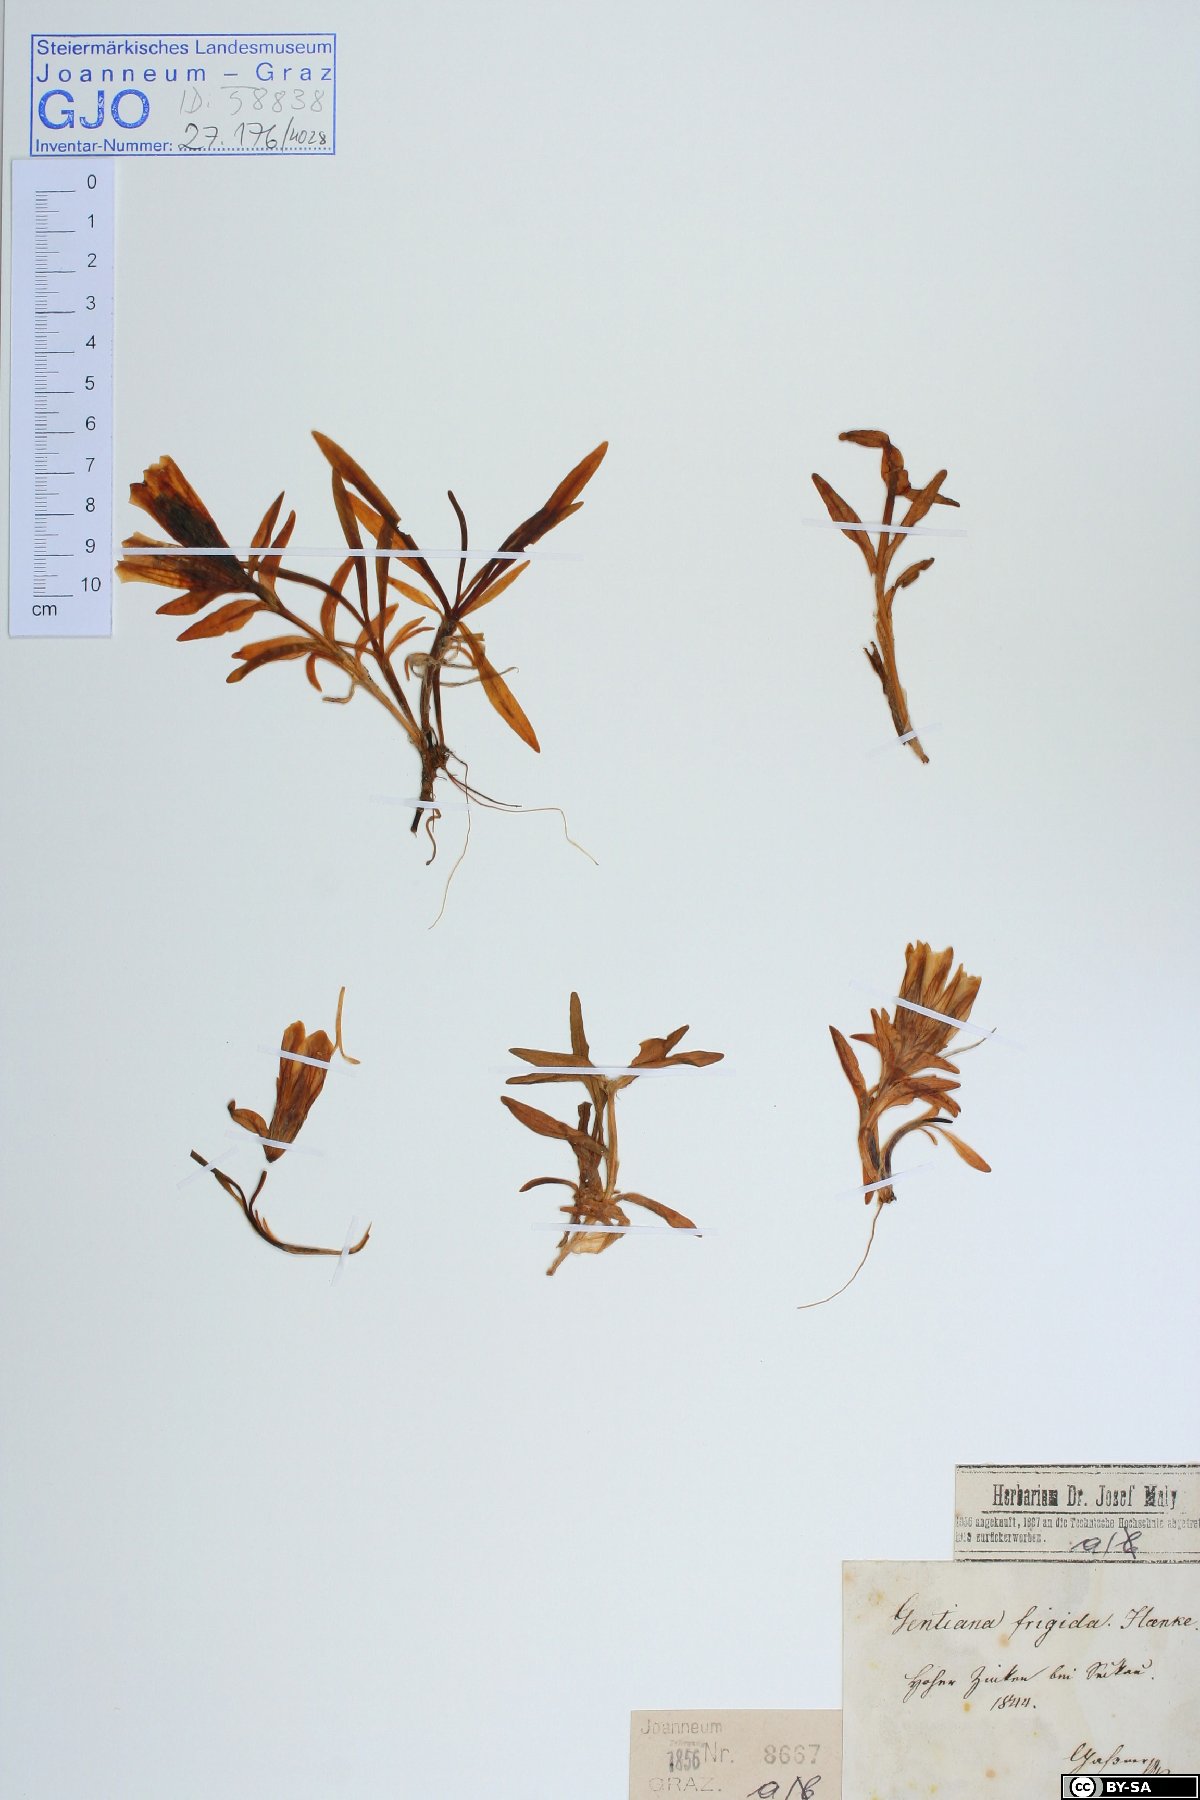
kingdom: Plantae
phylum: Tracheophyta
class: Magnoliopsida
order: Gentianales
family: Gentianaceae
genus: Gentiana
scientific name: Gentiana frigida
